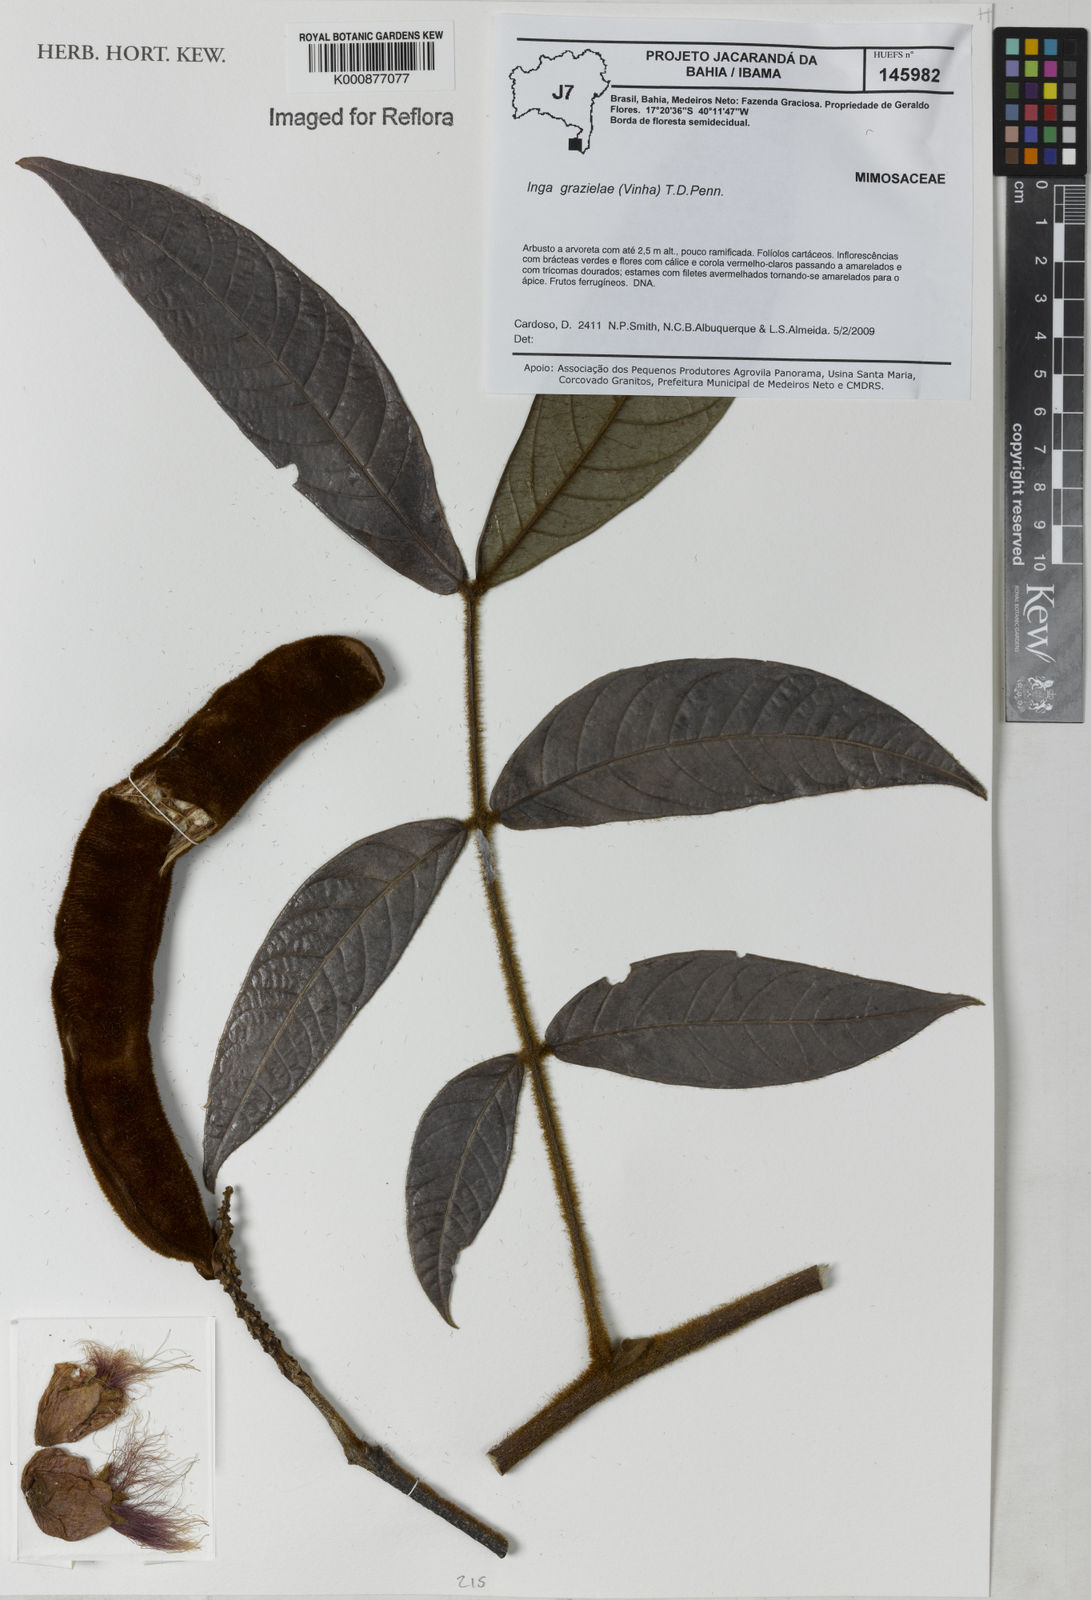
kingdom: Plantae
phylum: Tracheophyta
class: Magnoliopsida
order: Fabales
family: Fabaceae
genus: Inga
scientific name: Inga grazielae
